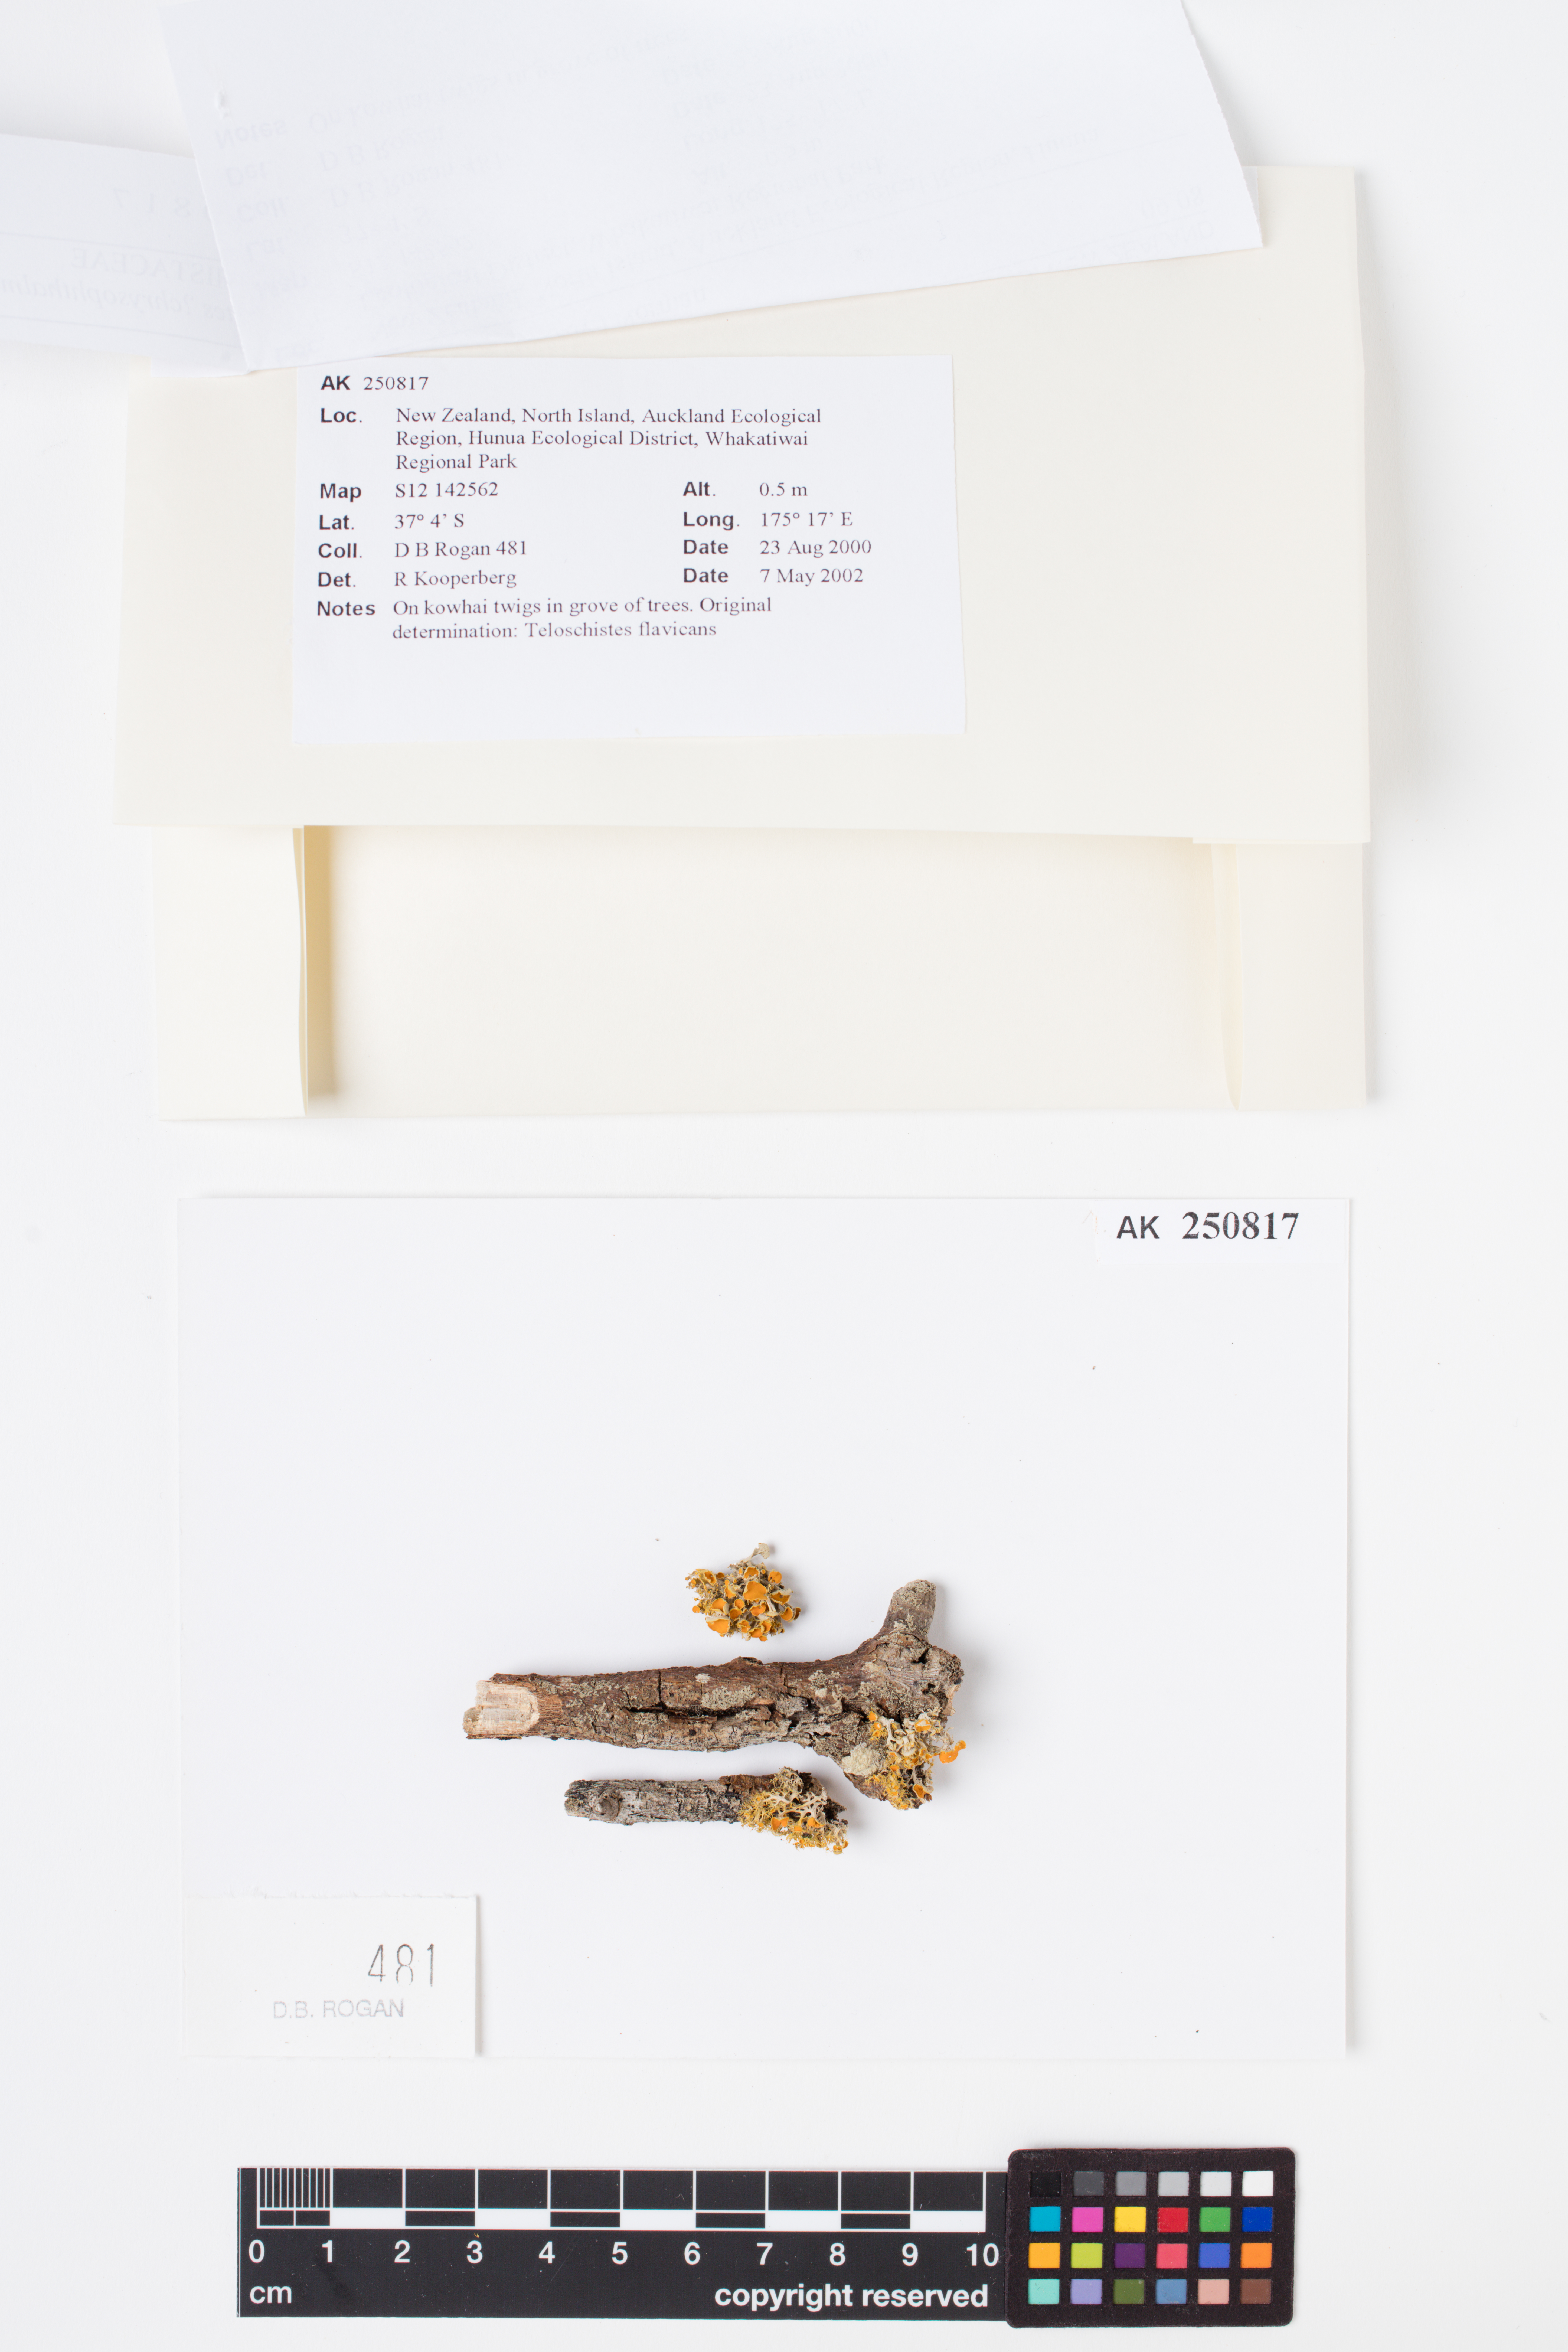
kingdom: Fungi
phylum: Ascomycota
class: Lecanoromycetes
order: Teloschistales
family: Teloschistaceae
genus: Niorma
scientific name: Niorma chrysophthalma
